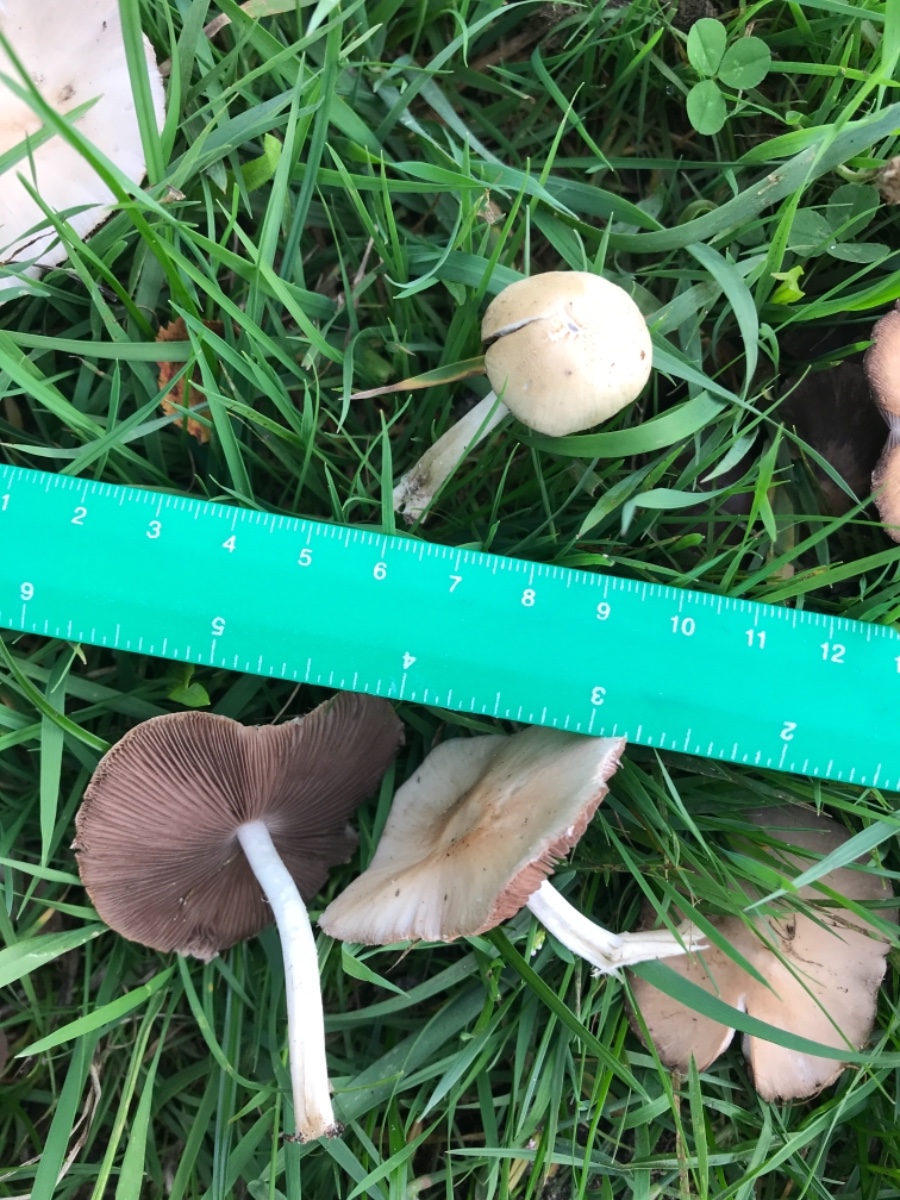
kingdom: Fungi
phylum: Basidiomycota
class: Agaricomycetes
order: Agaricales
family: Psathyrellaceae
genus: Candolleomyces
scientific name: Candolleomyces candolleanus
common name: Candolles mørkhat
